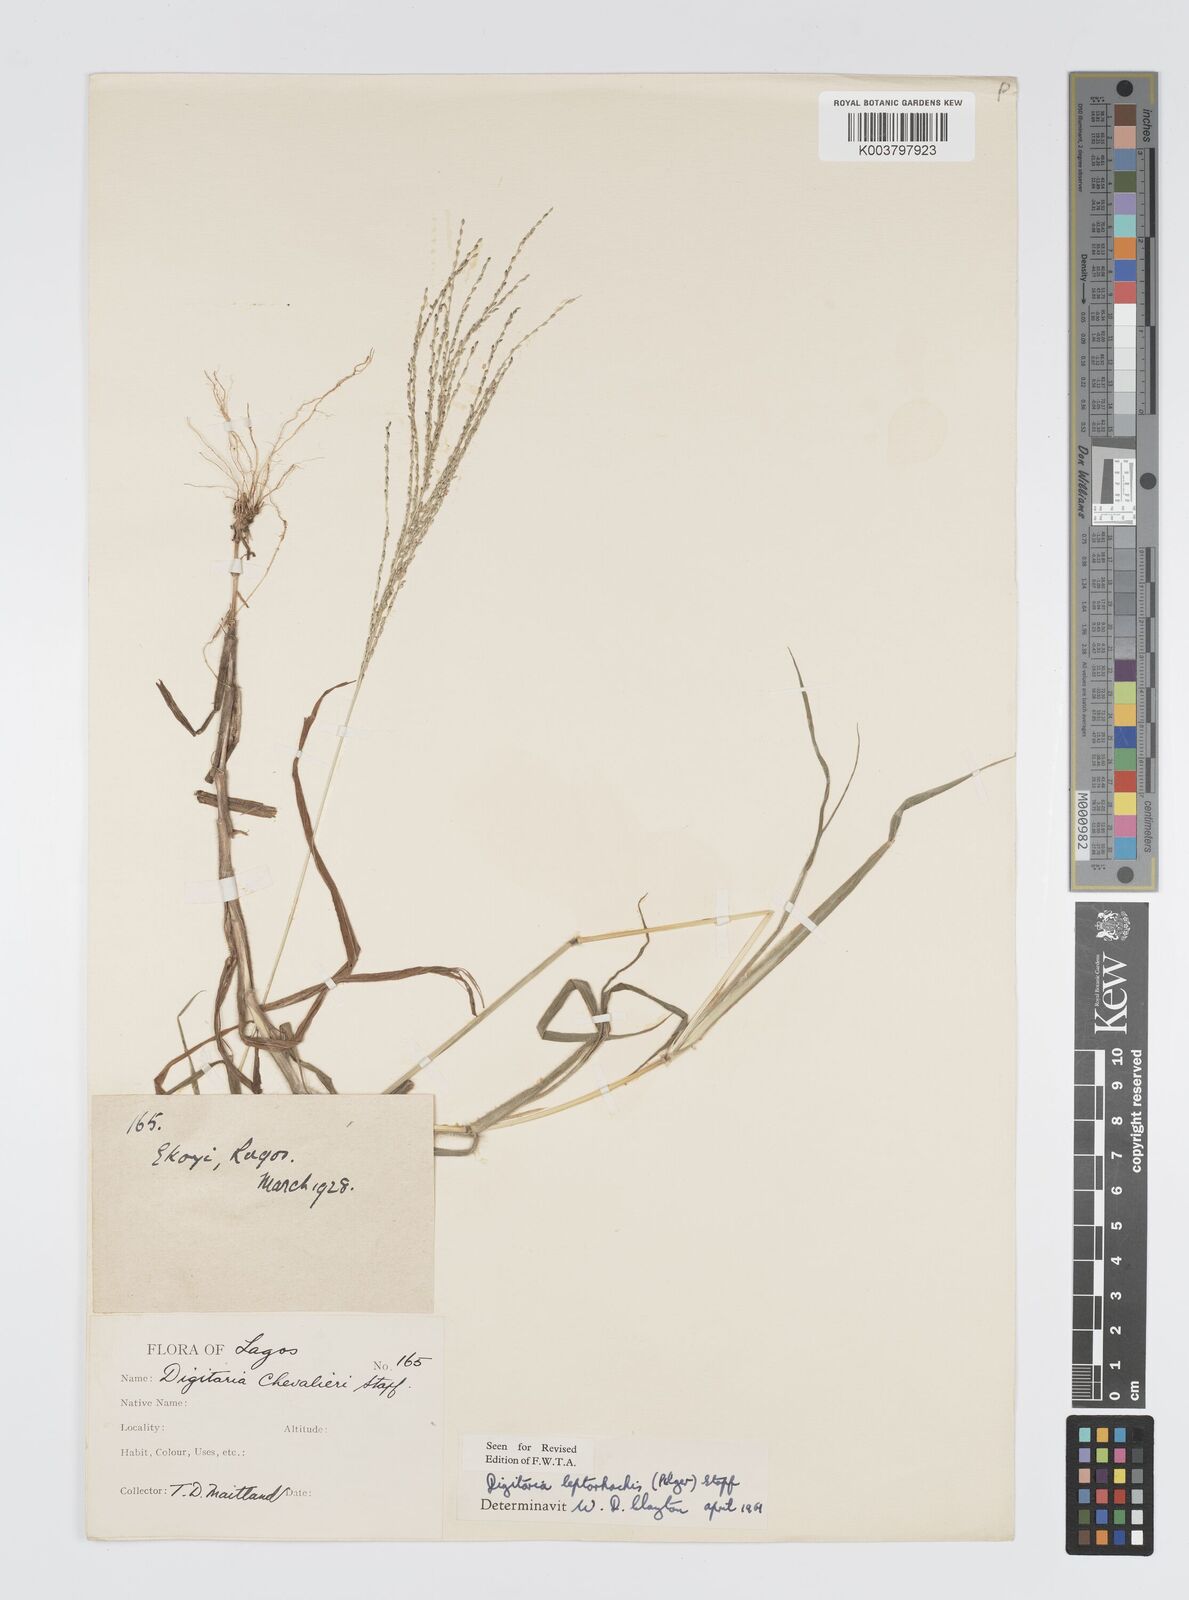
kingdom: Plantae
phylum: Tracheophyta
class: Liliopsida
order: Poales
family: Poaceae
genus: Digitaria
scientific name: Digitaria leptorhachis
